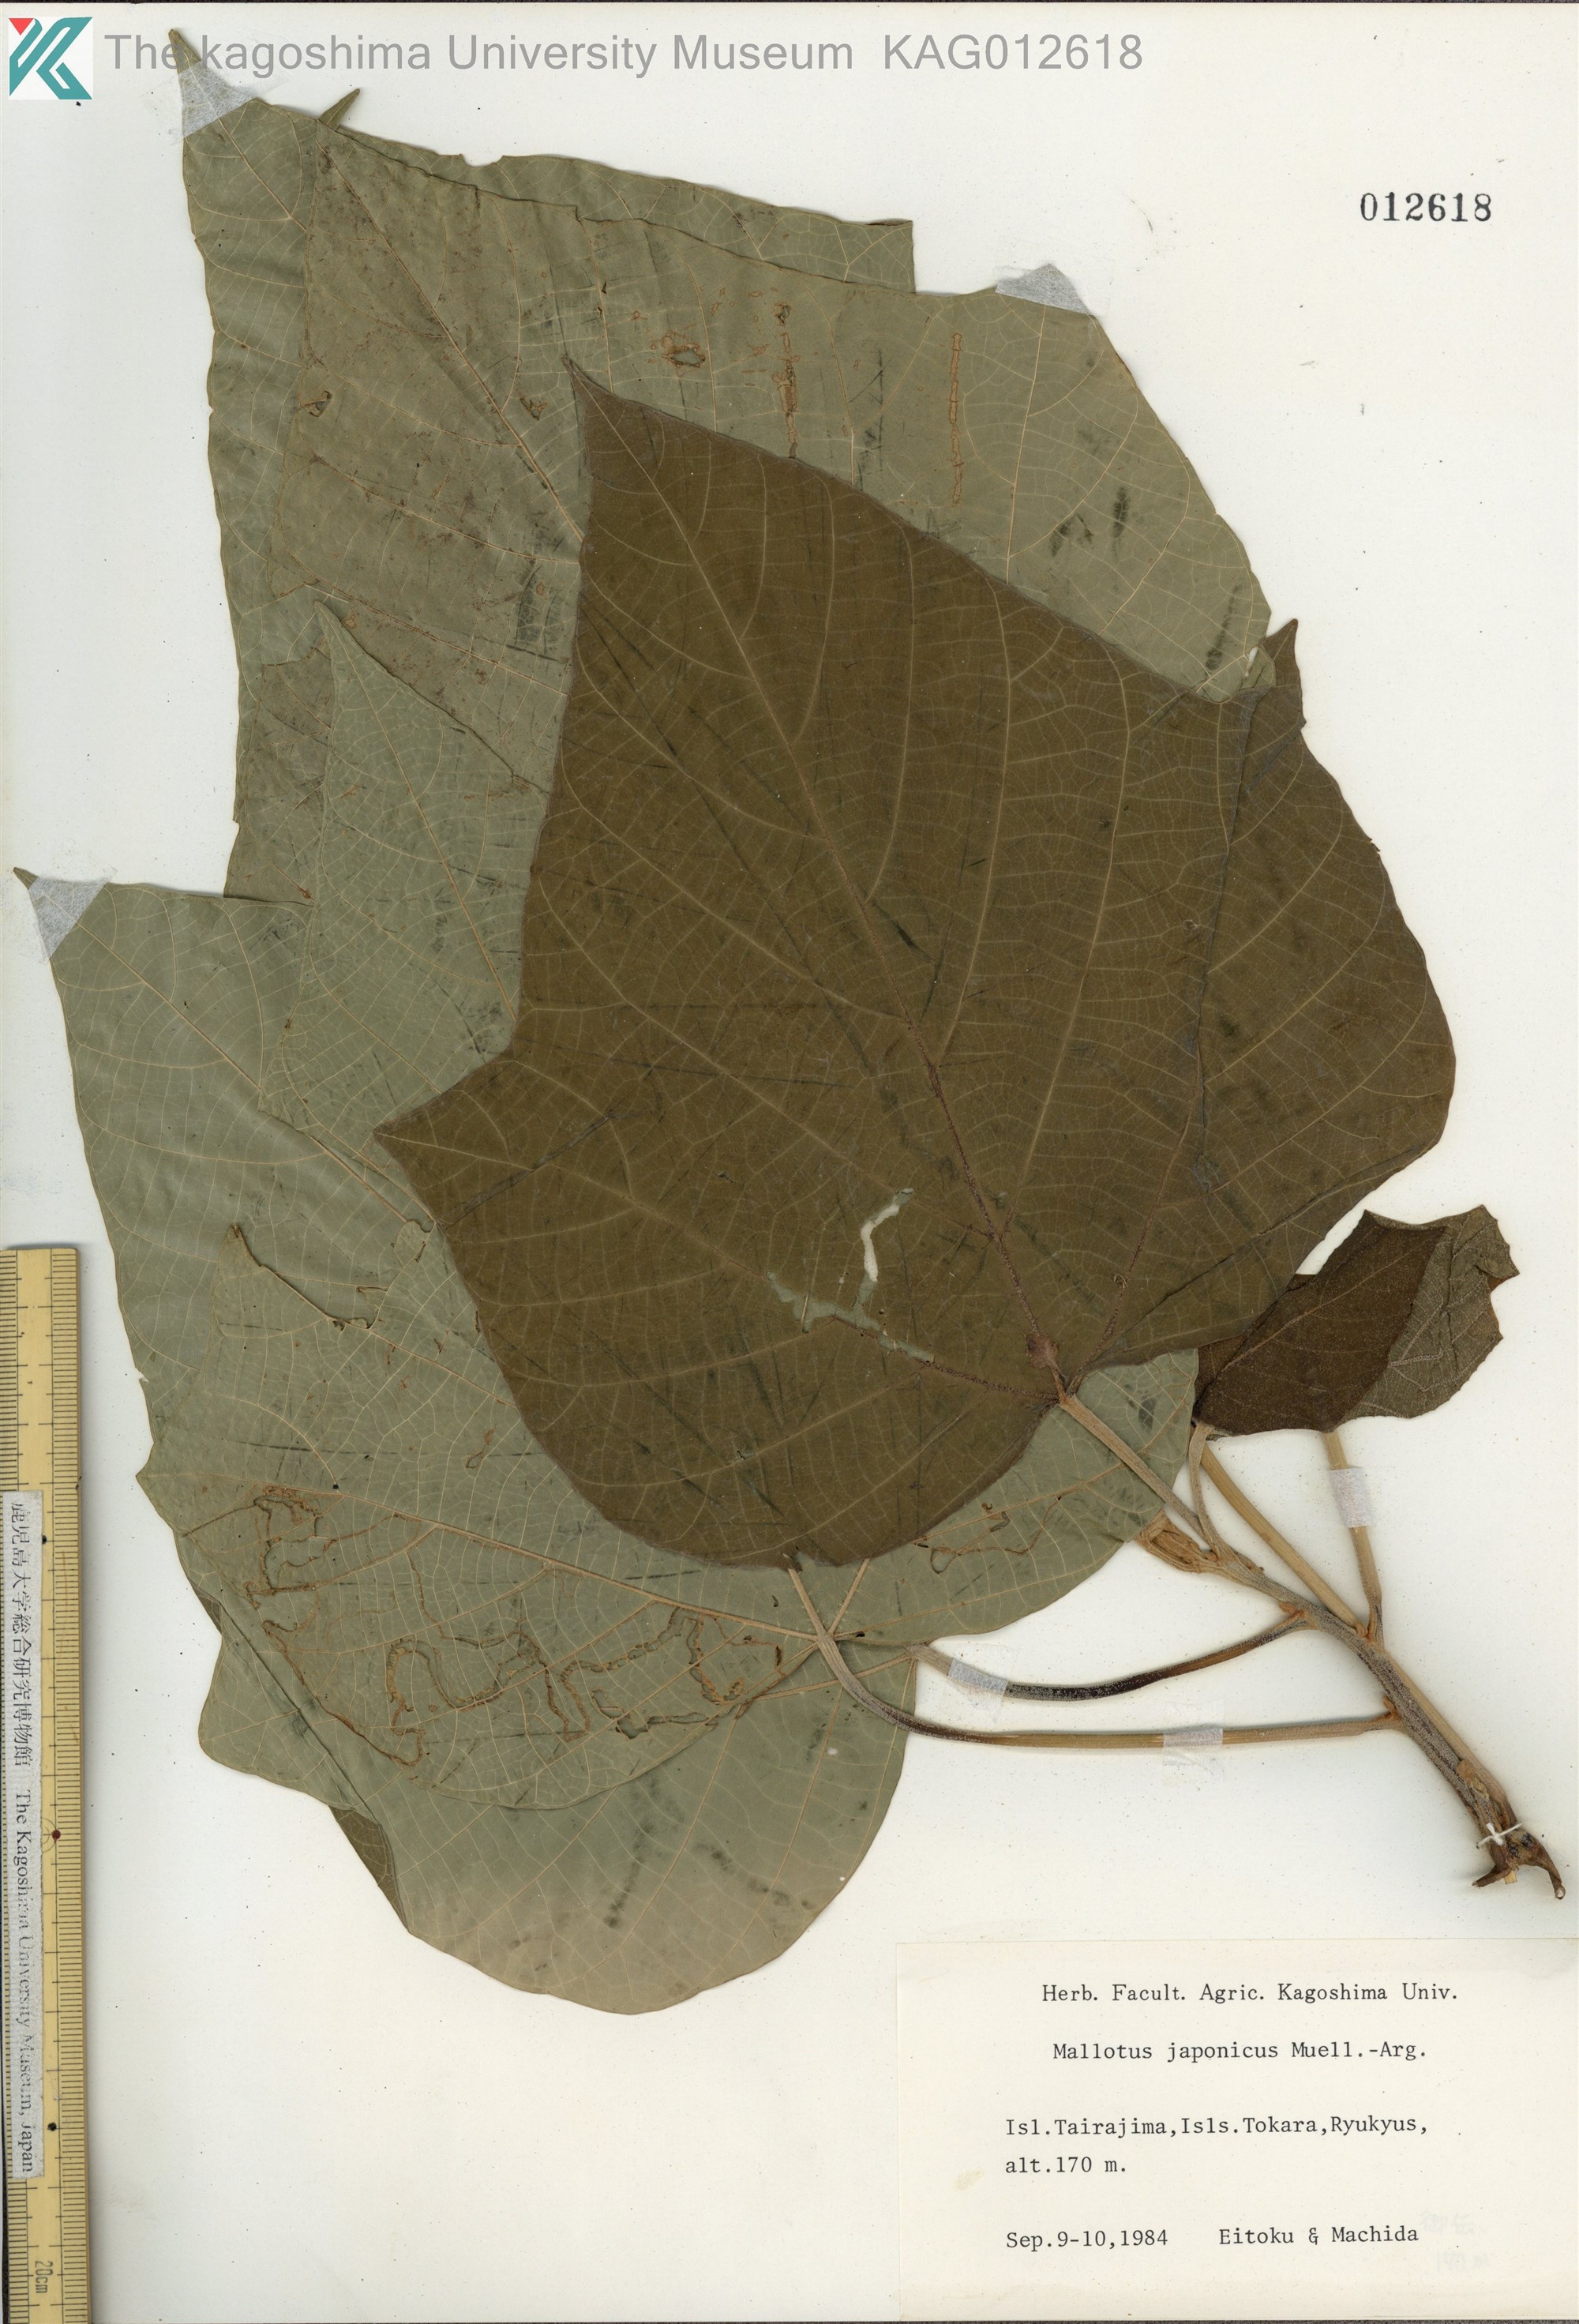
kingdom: Plantae
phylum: Tracheophyta
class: Magnoliopsida
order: Malpighiales
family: Euphorbiaceae
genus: Mallotus
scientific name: Mallotus japonicus
